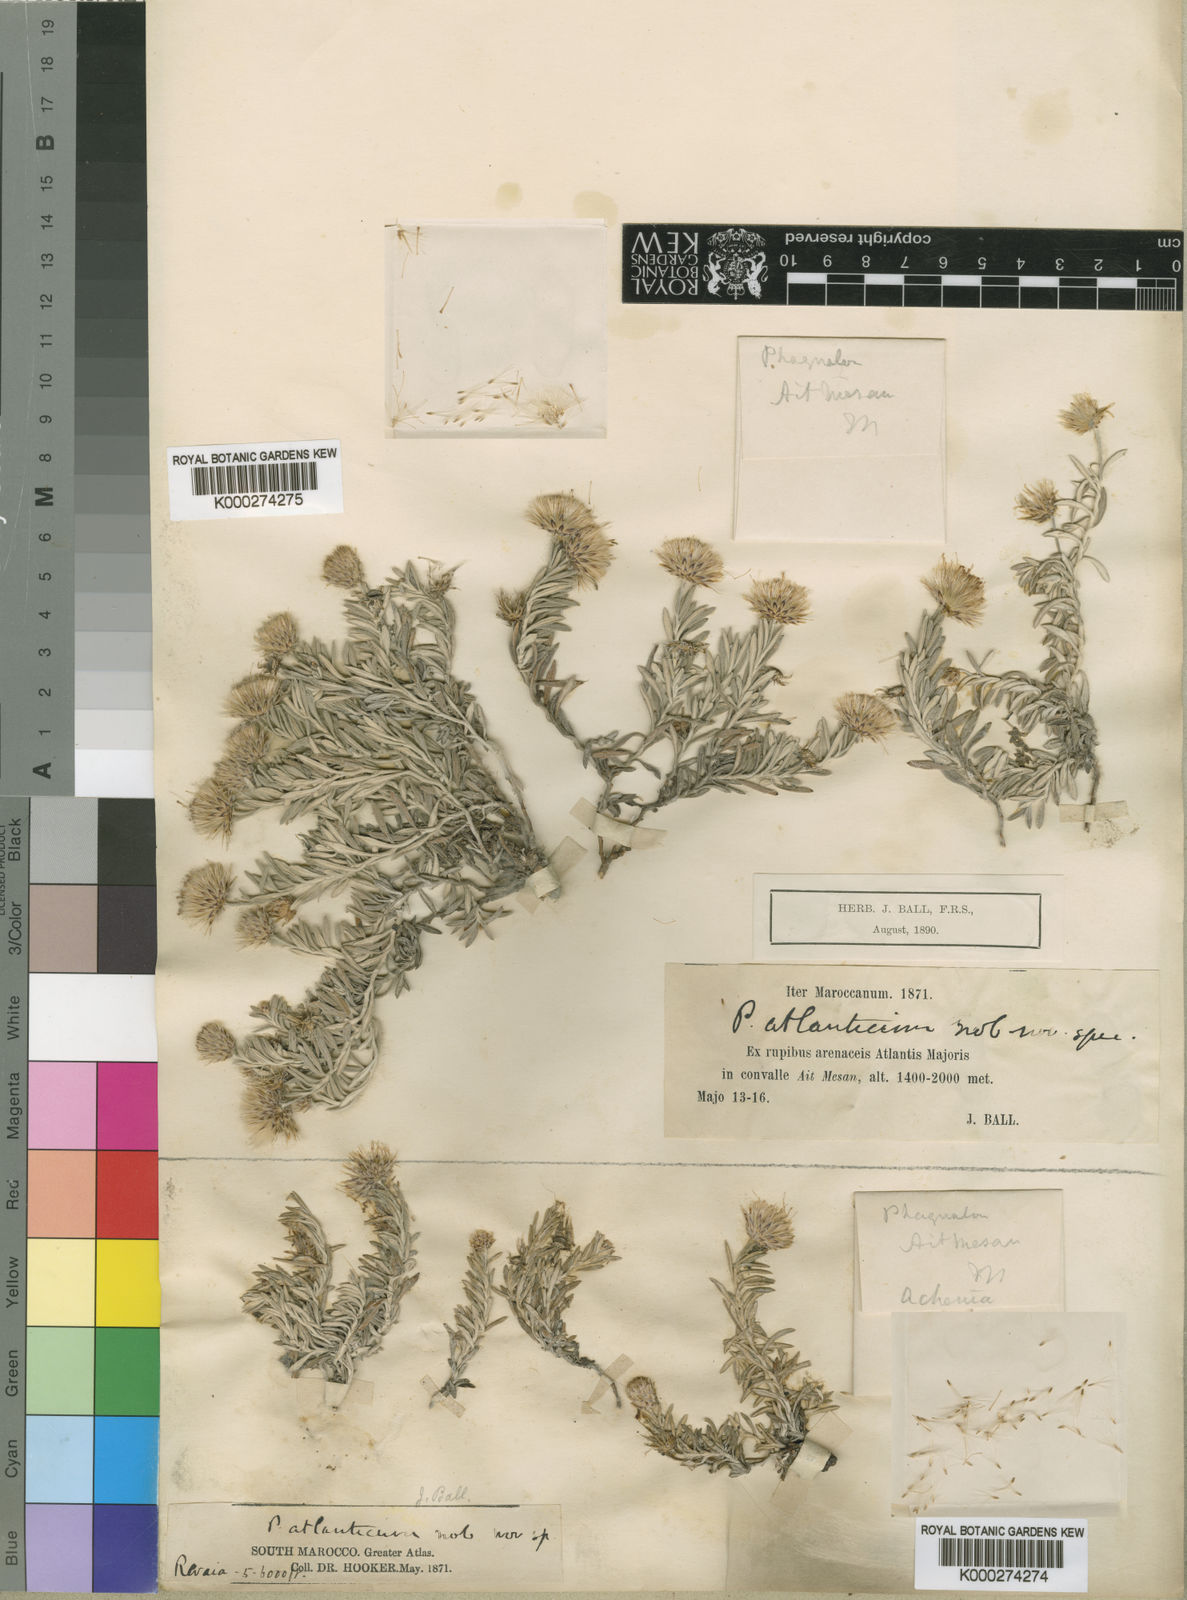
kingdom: Plantae
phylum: Tracheophyta
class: Magnoliopsida
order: Asterales
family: Asteraceae
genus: Phagnalon
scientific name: Phagnalon bicolor
